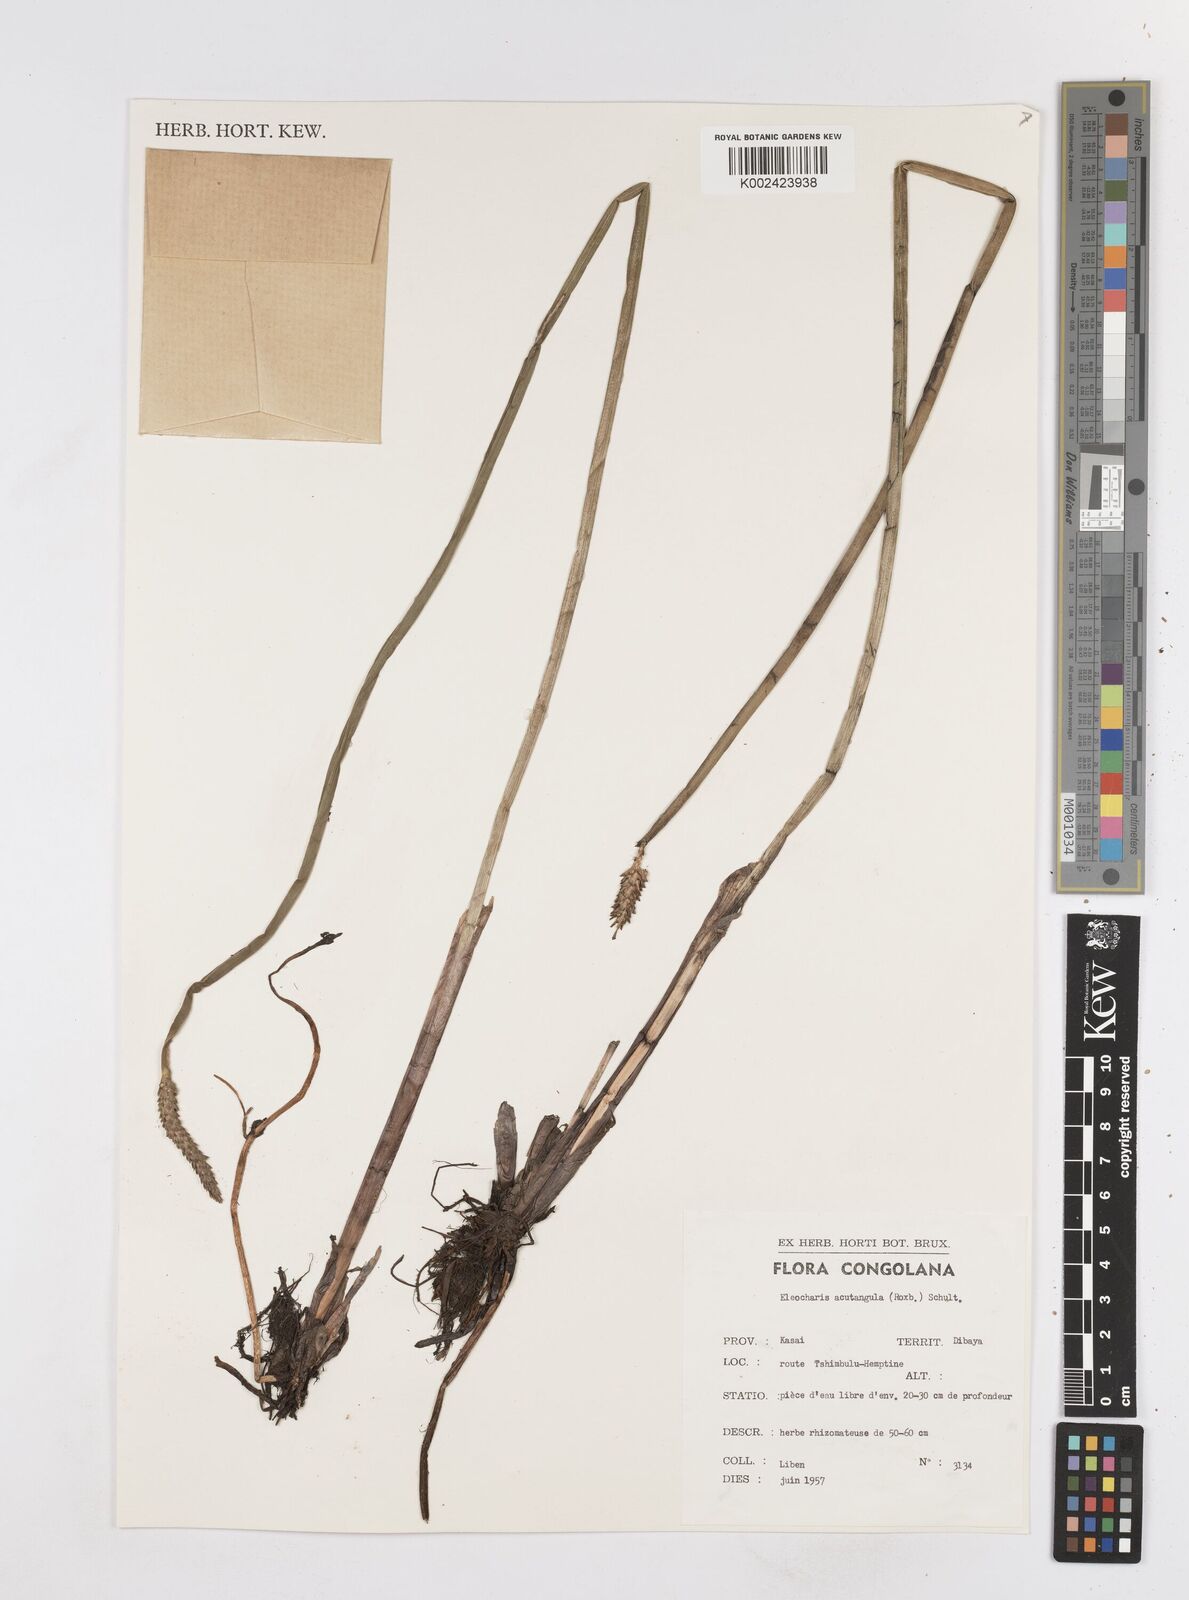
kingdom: Plantae
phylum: Tracheophyta
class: Liliopsida
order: Poales
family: Cyperaceae
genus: Eleocharis
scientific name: Eleocharis acutangula
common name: Acute spikerush
